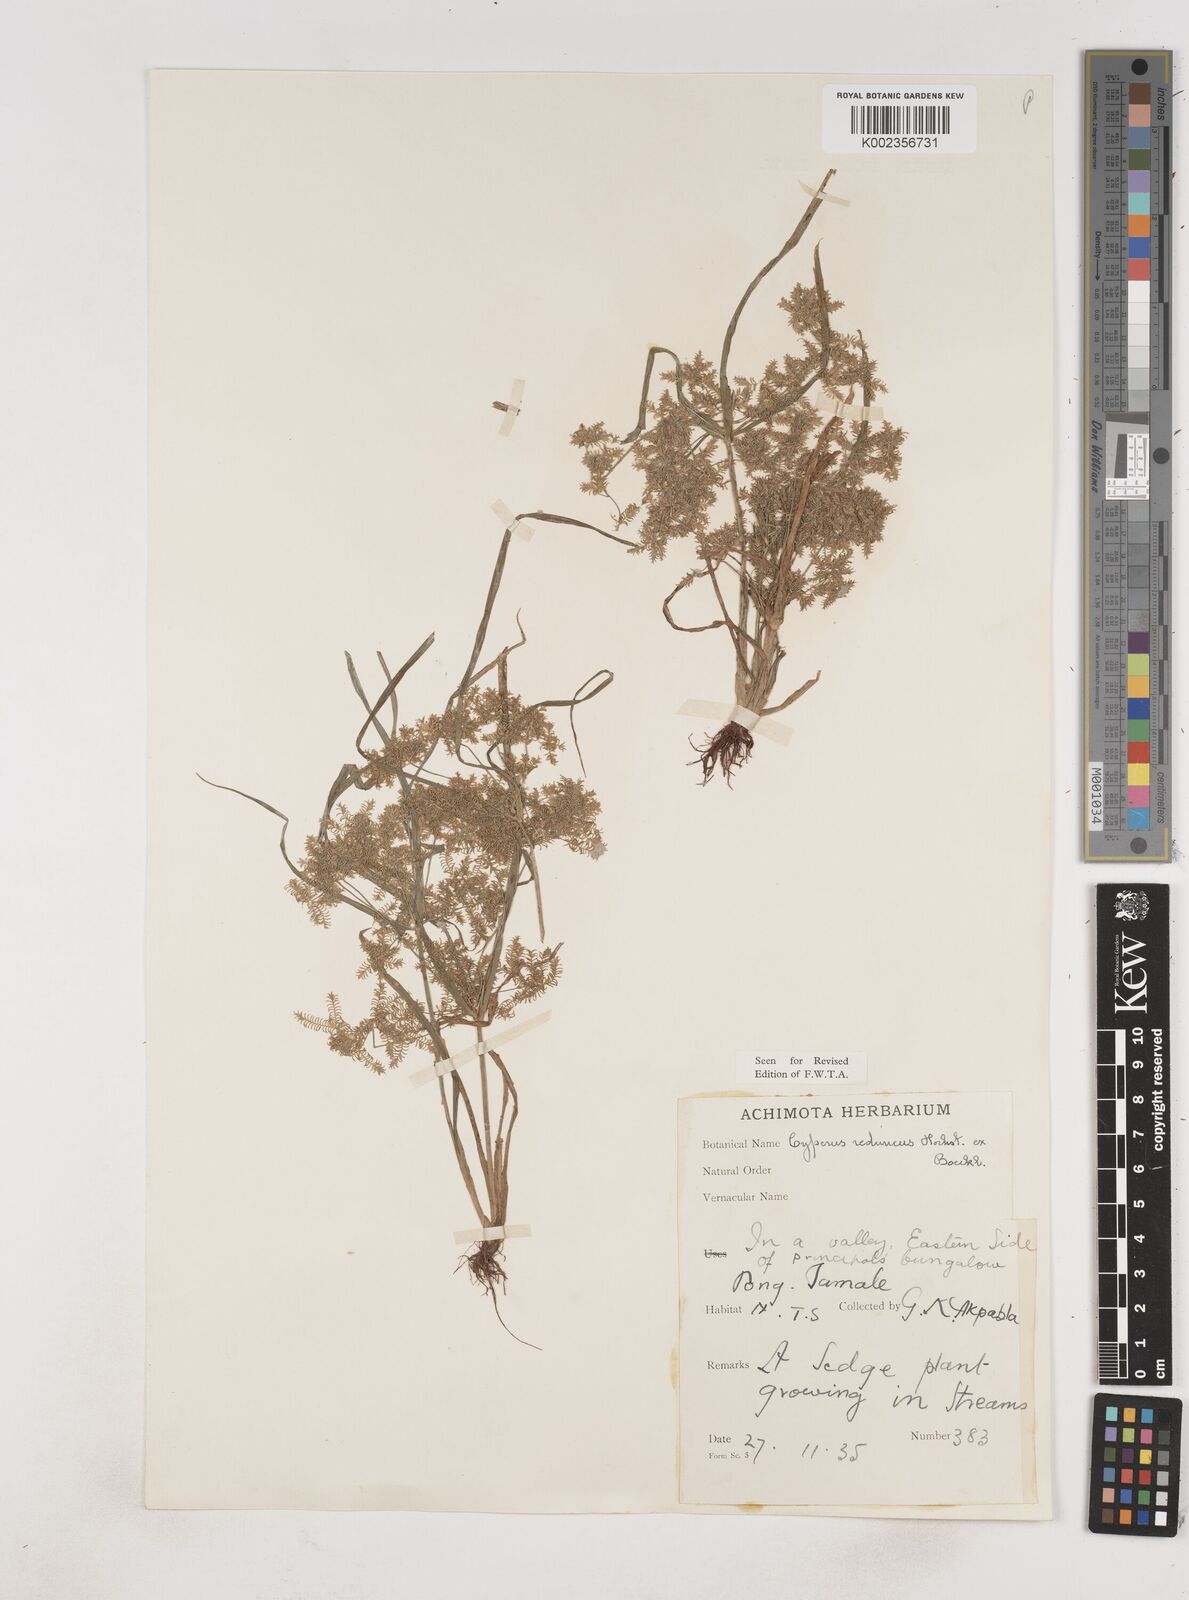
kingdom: Plantae
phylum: Tracheophyta
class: Liliopsida
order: Poales
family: Cyperaceae
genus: Cyperus
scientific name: Cyperus reduncus
